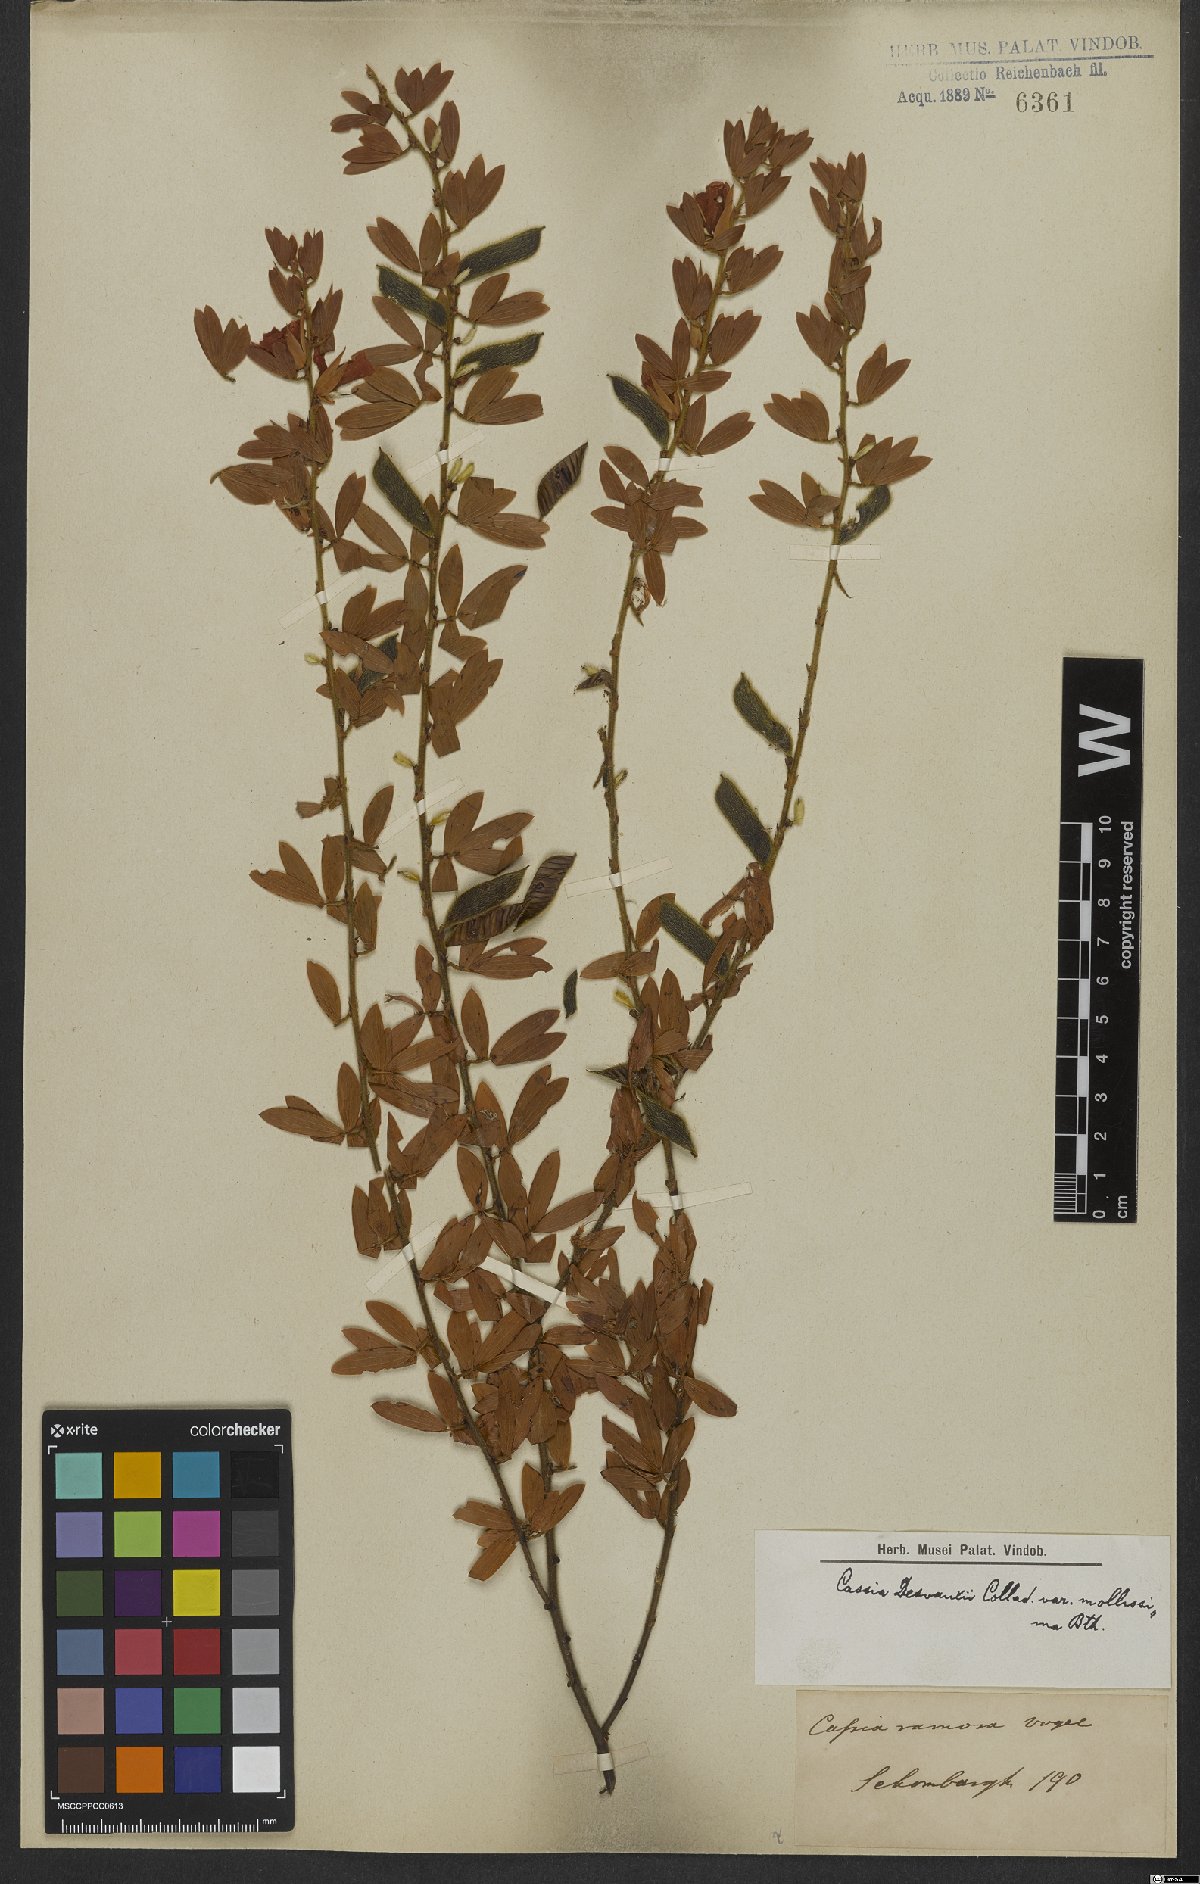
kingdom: Plantae
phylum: Tracheophyta
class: Magnoliopsida
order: Fabales
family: Fabaceae
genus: Chamaecrista
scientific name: Chamaecrista desvauxii
